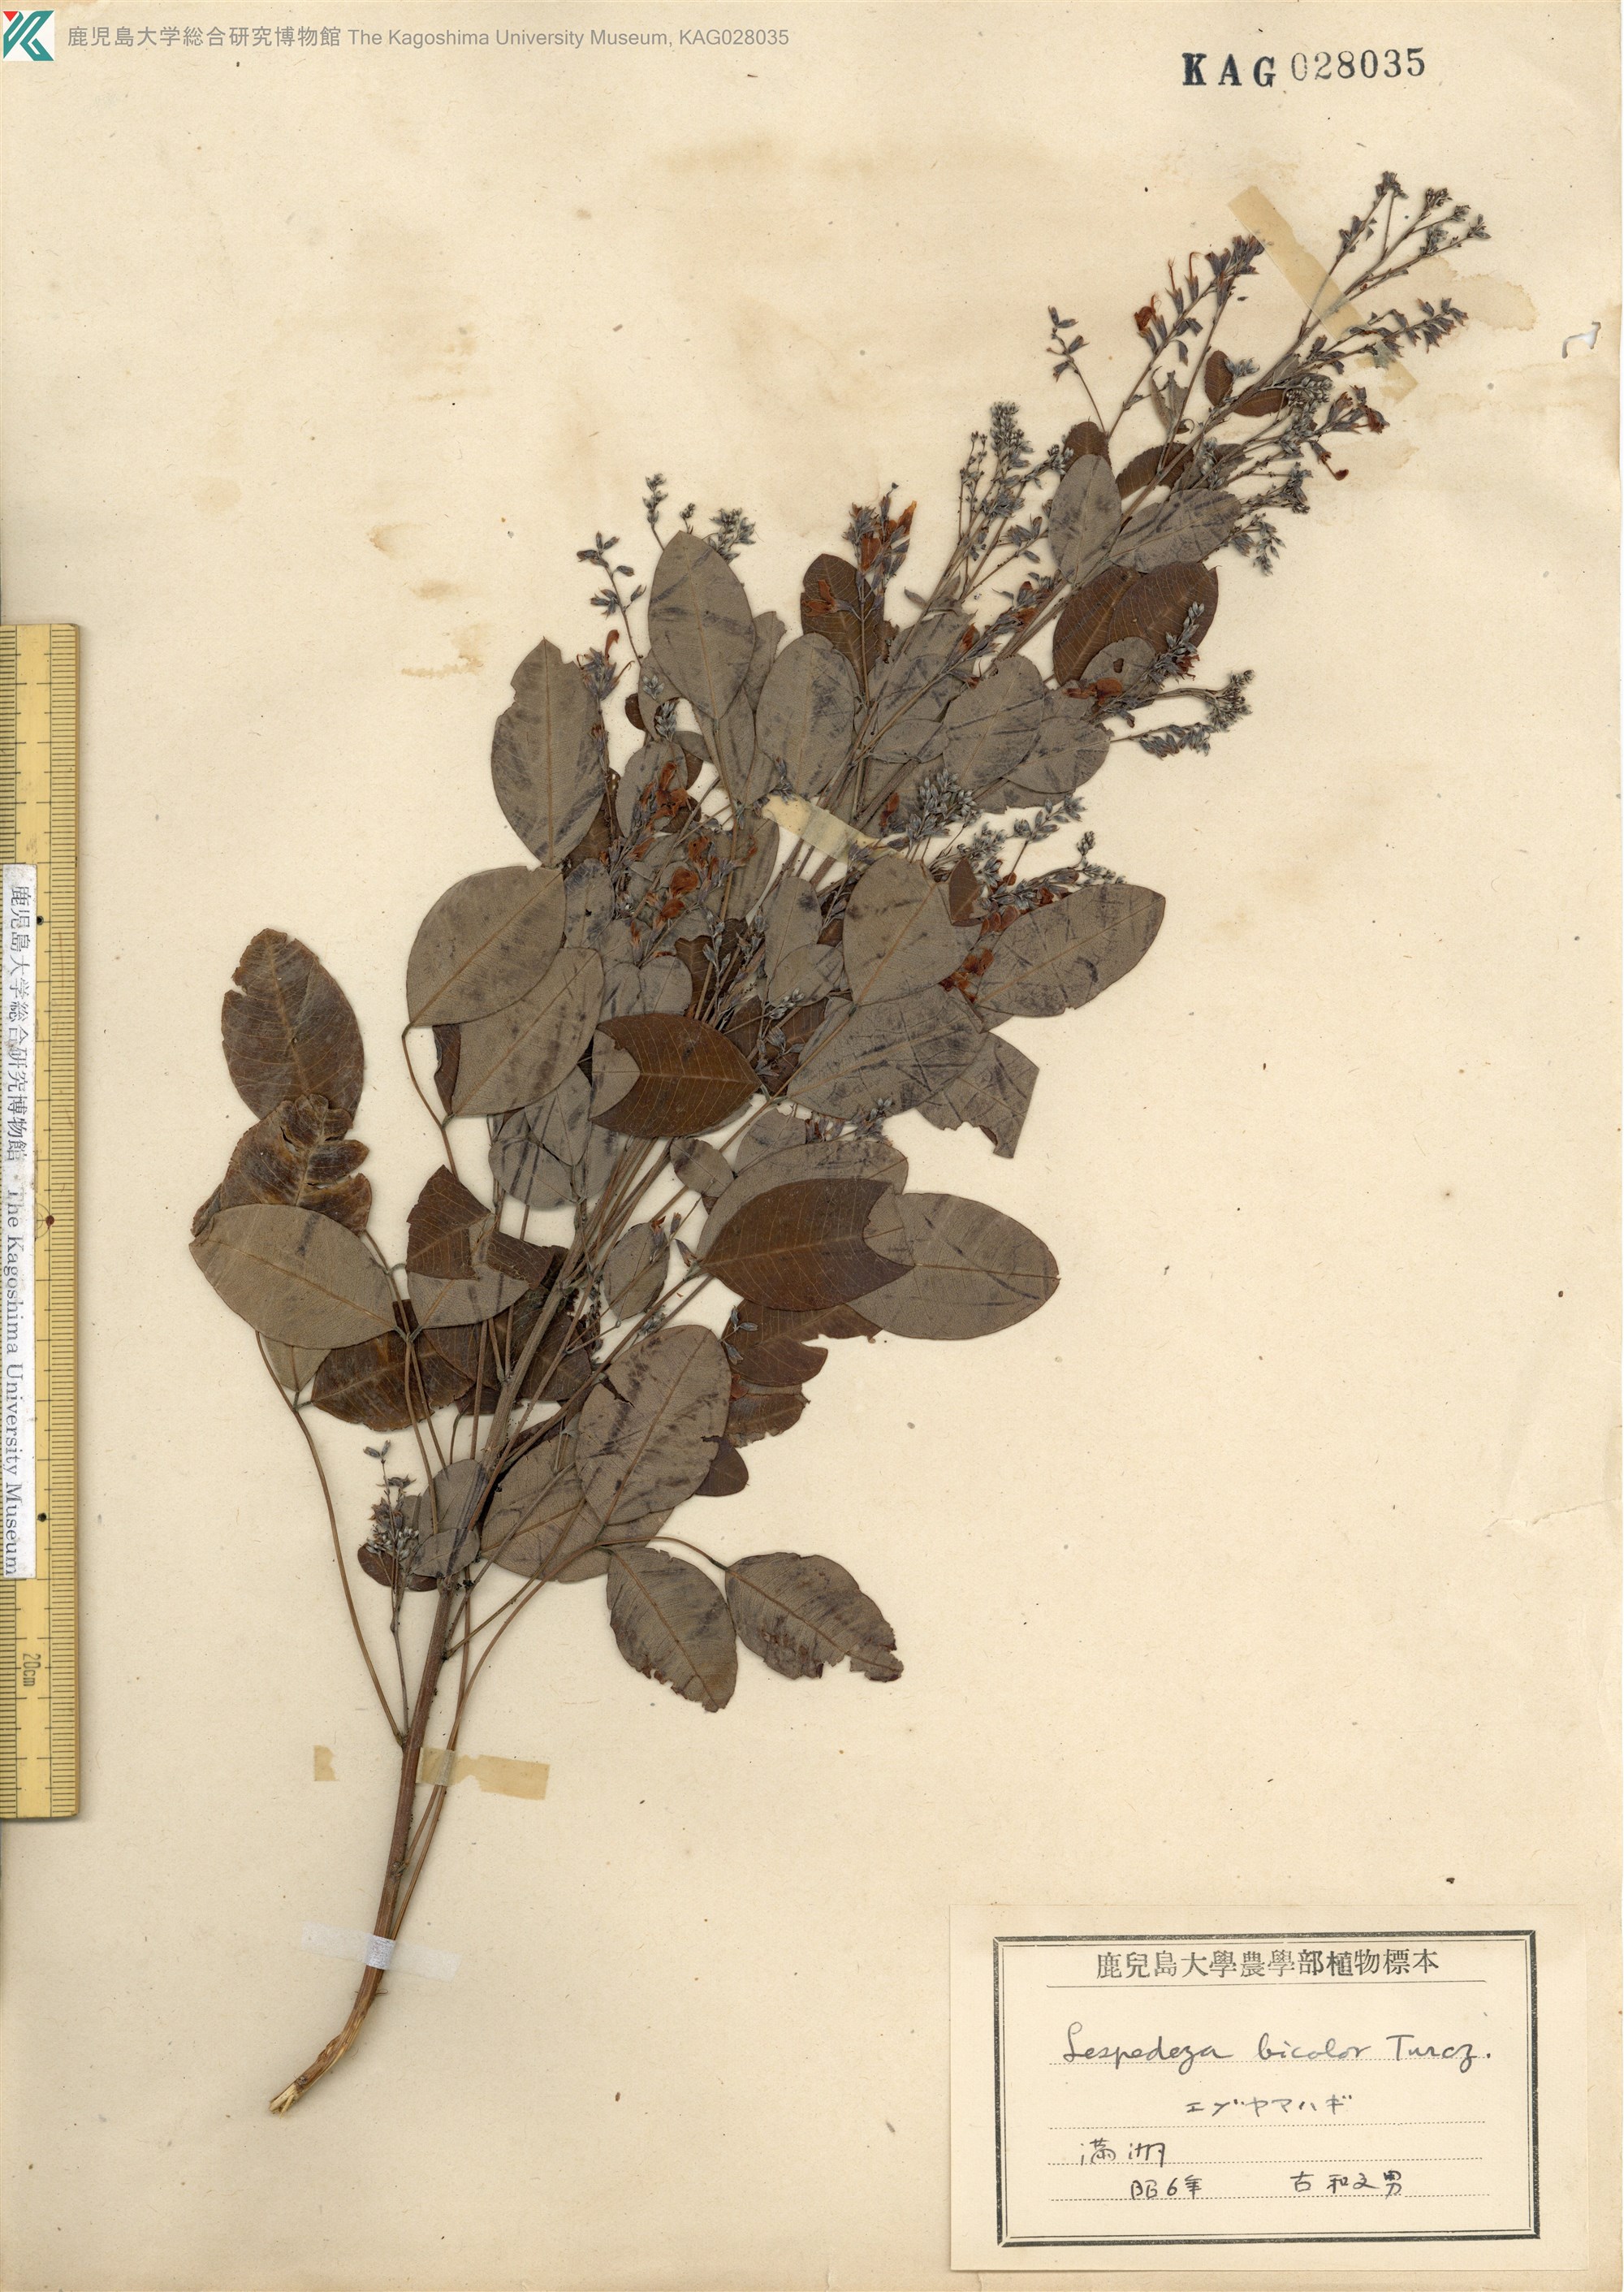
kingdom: Plantae
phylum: Tracheophyta
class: Magnoliopsida
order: Fabales
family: Fabaceae
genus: Lespedeza
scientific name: Lespedeza bicolor
